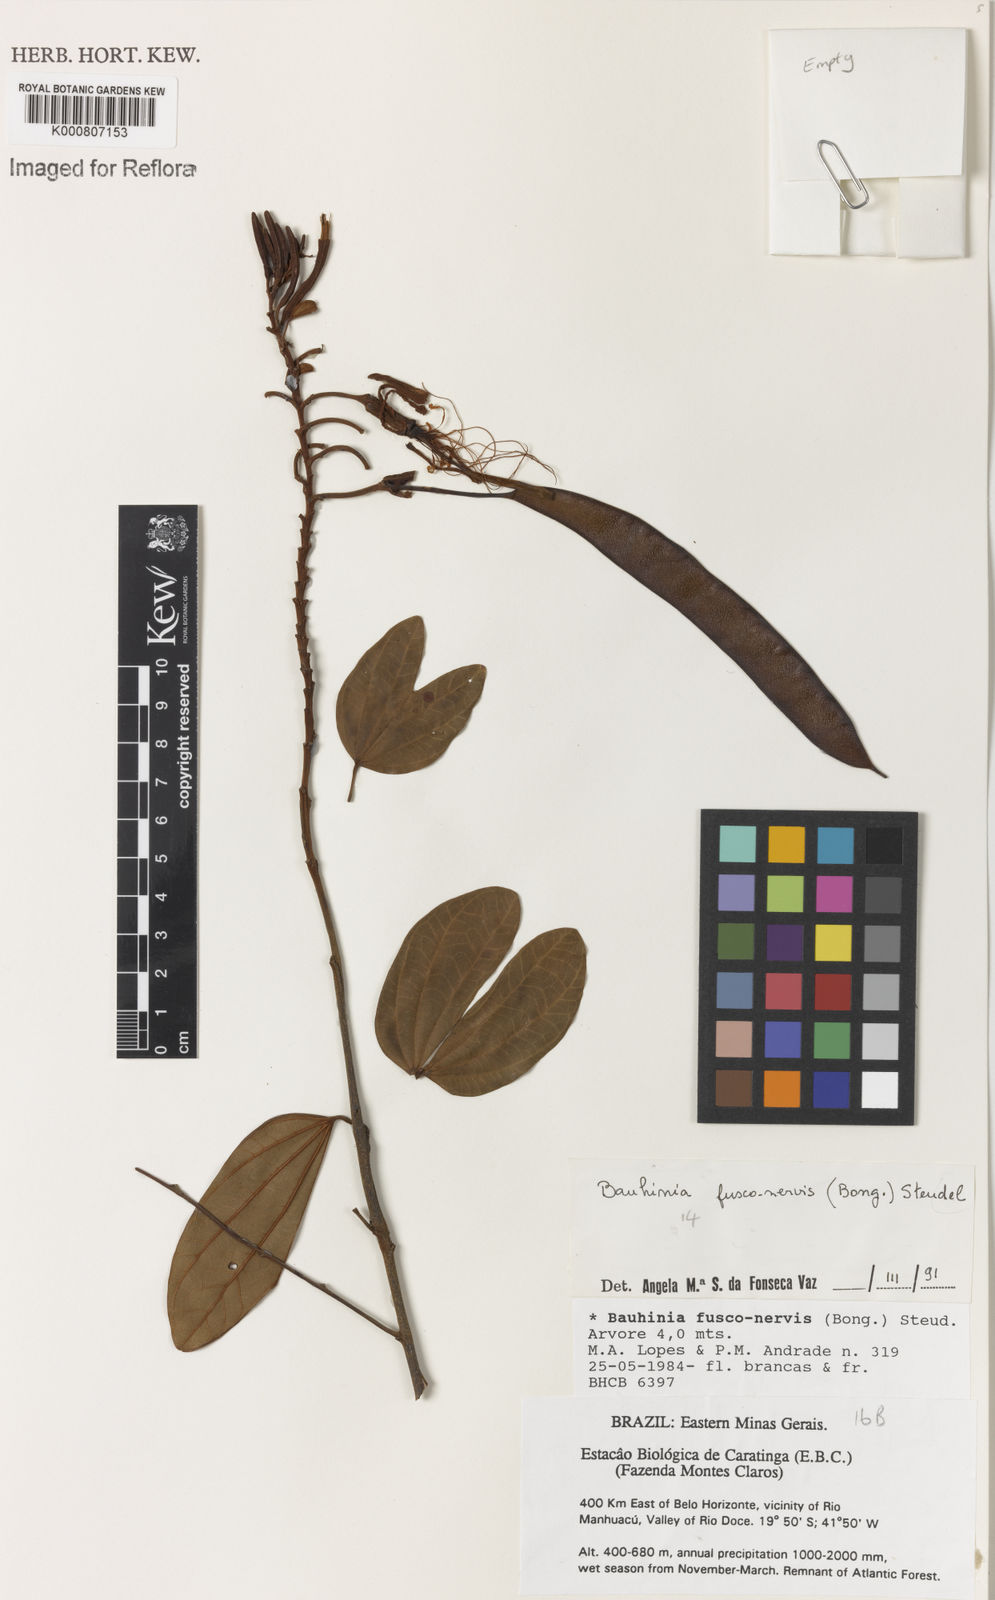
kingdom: Plantae
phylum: Tracheophyta
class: Magnoliopsida
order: Fabales
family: Fabaceae
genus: Bauhinia
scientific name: Bauhinia
